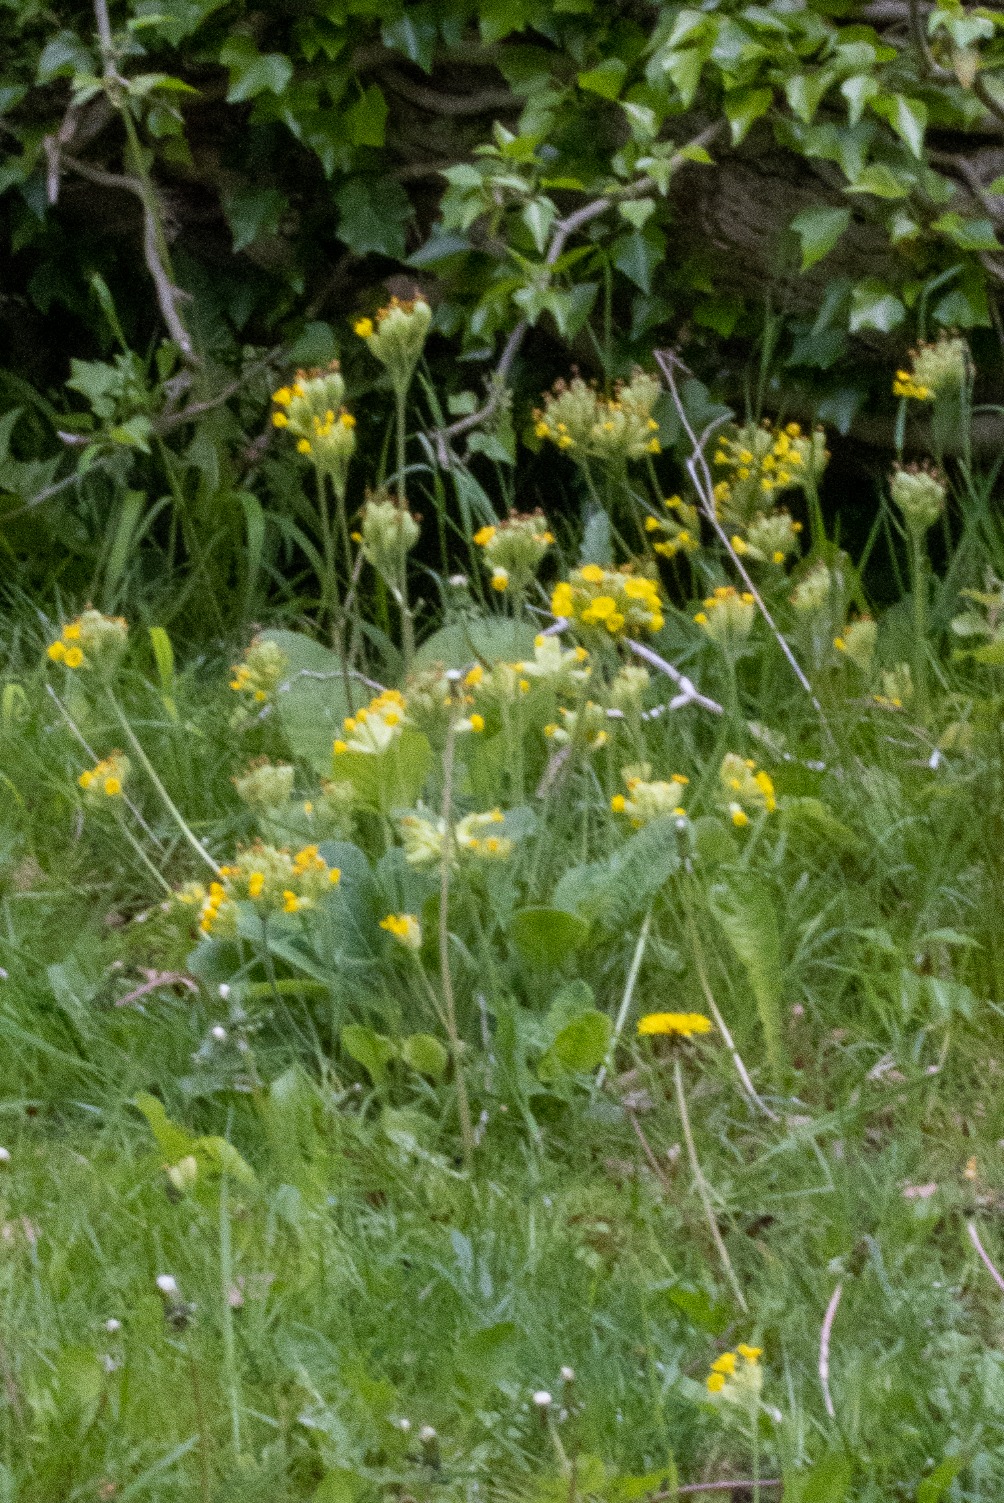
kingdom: Plantae
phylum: Tracheophyta
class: Magnoliopsida
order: Ericales
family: Primulaceae
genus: Primula
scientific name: Primula veris
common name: Hulkravet kodriver
